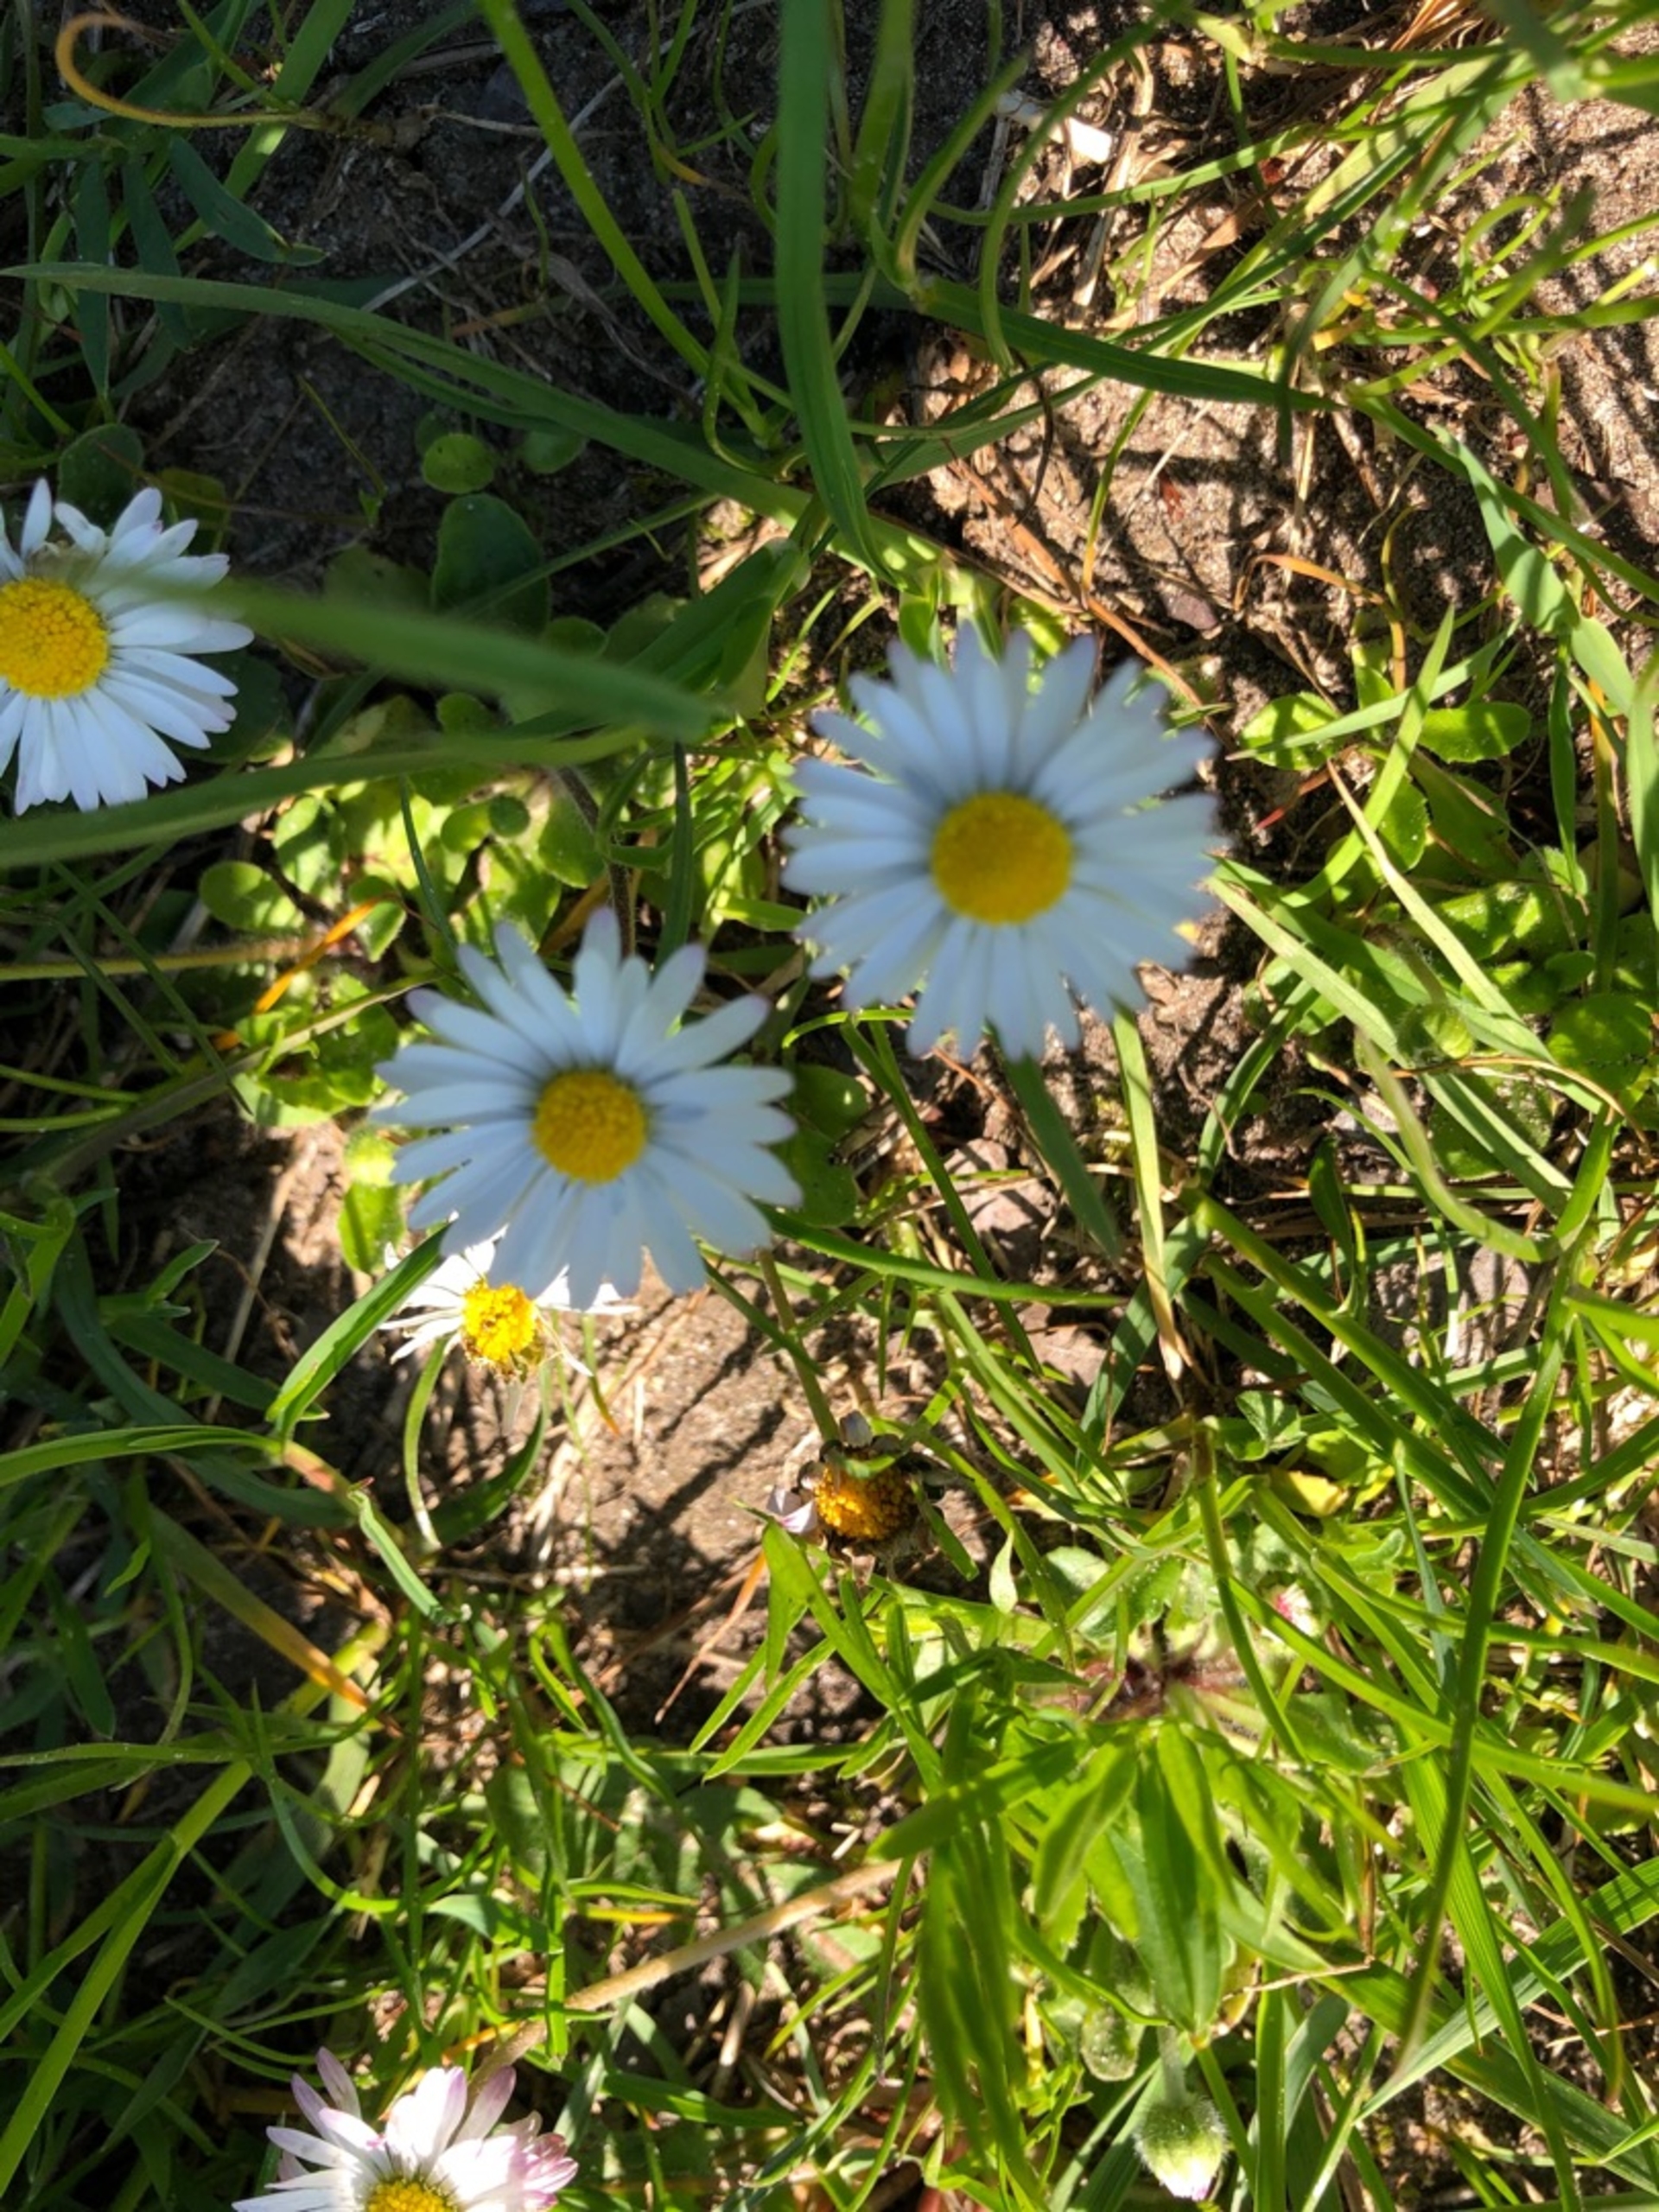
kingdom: Plantae
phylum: Tracheophyta
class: Magnoliopsida
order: Asterales
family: Asteraceae
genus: Bellis
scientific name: Bellis perennis
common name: Tusindfryd
